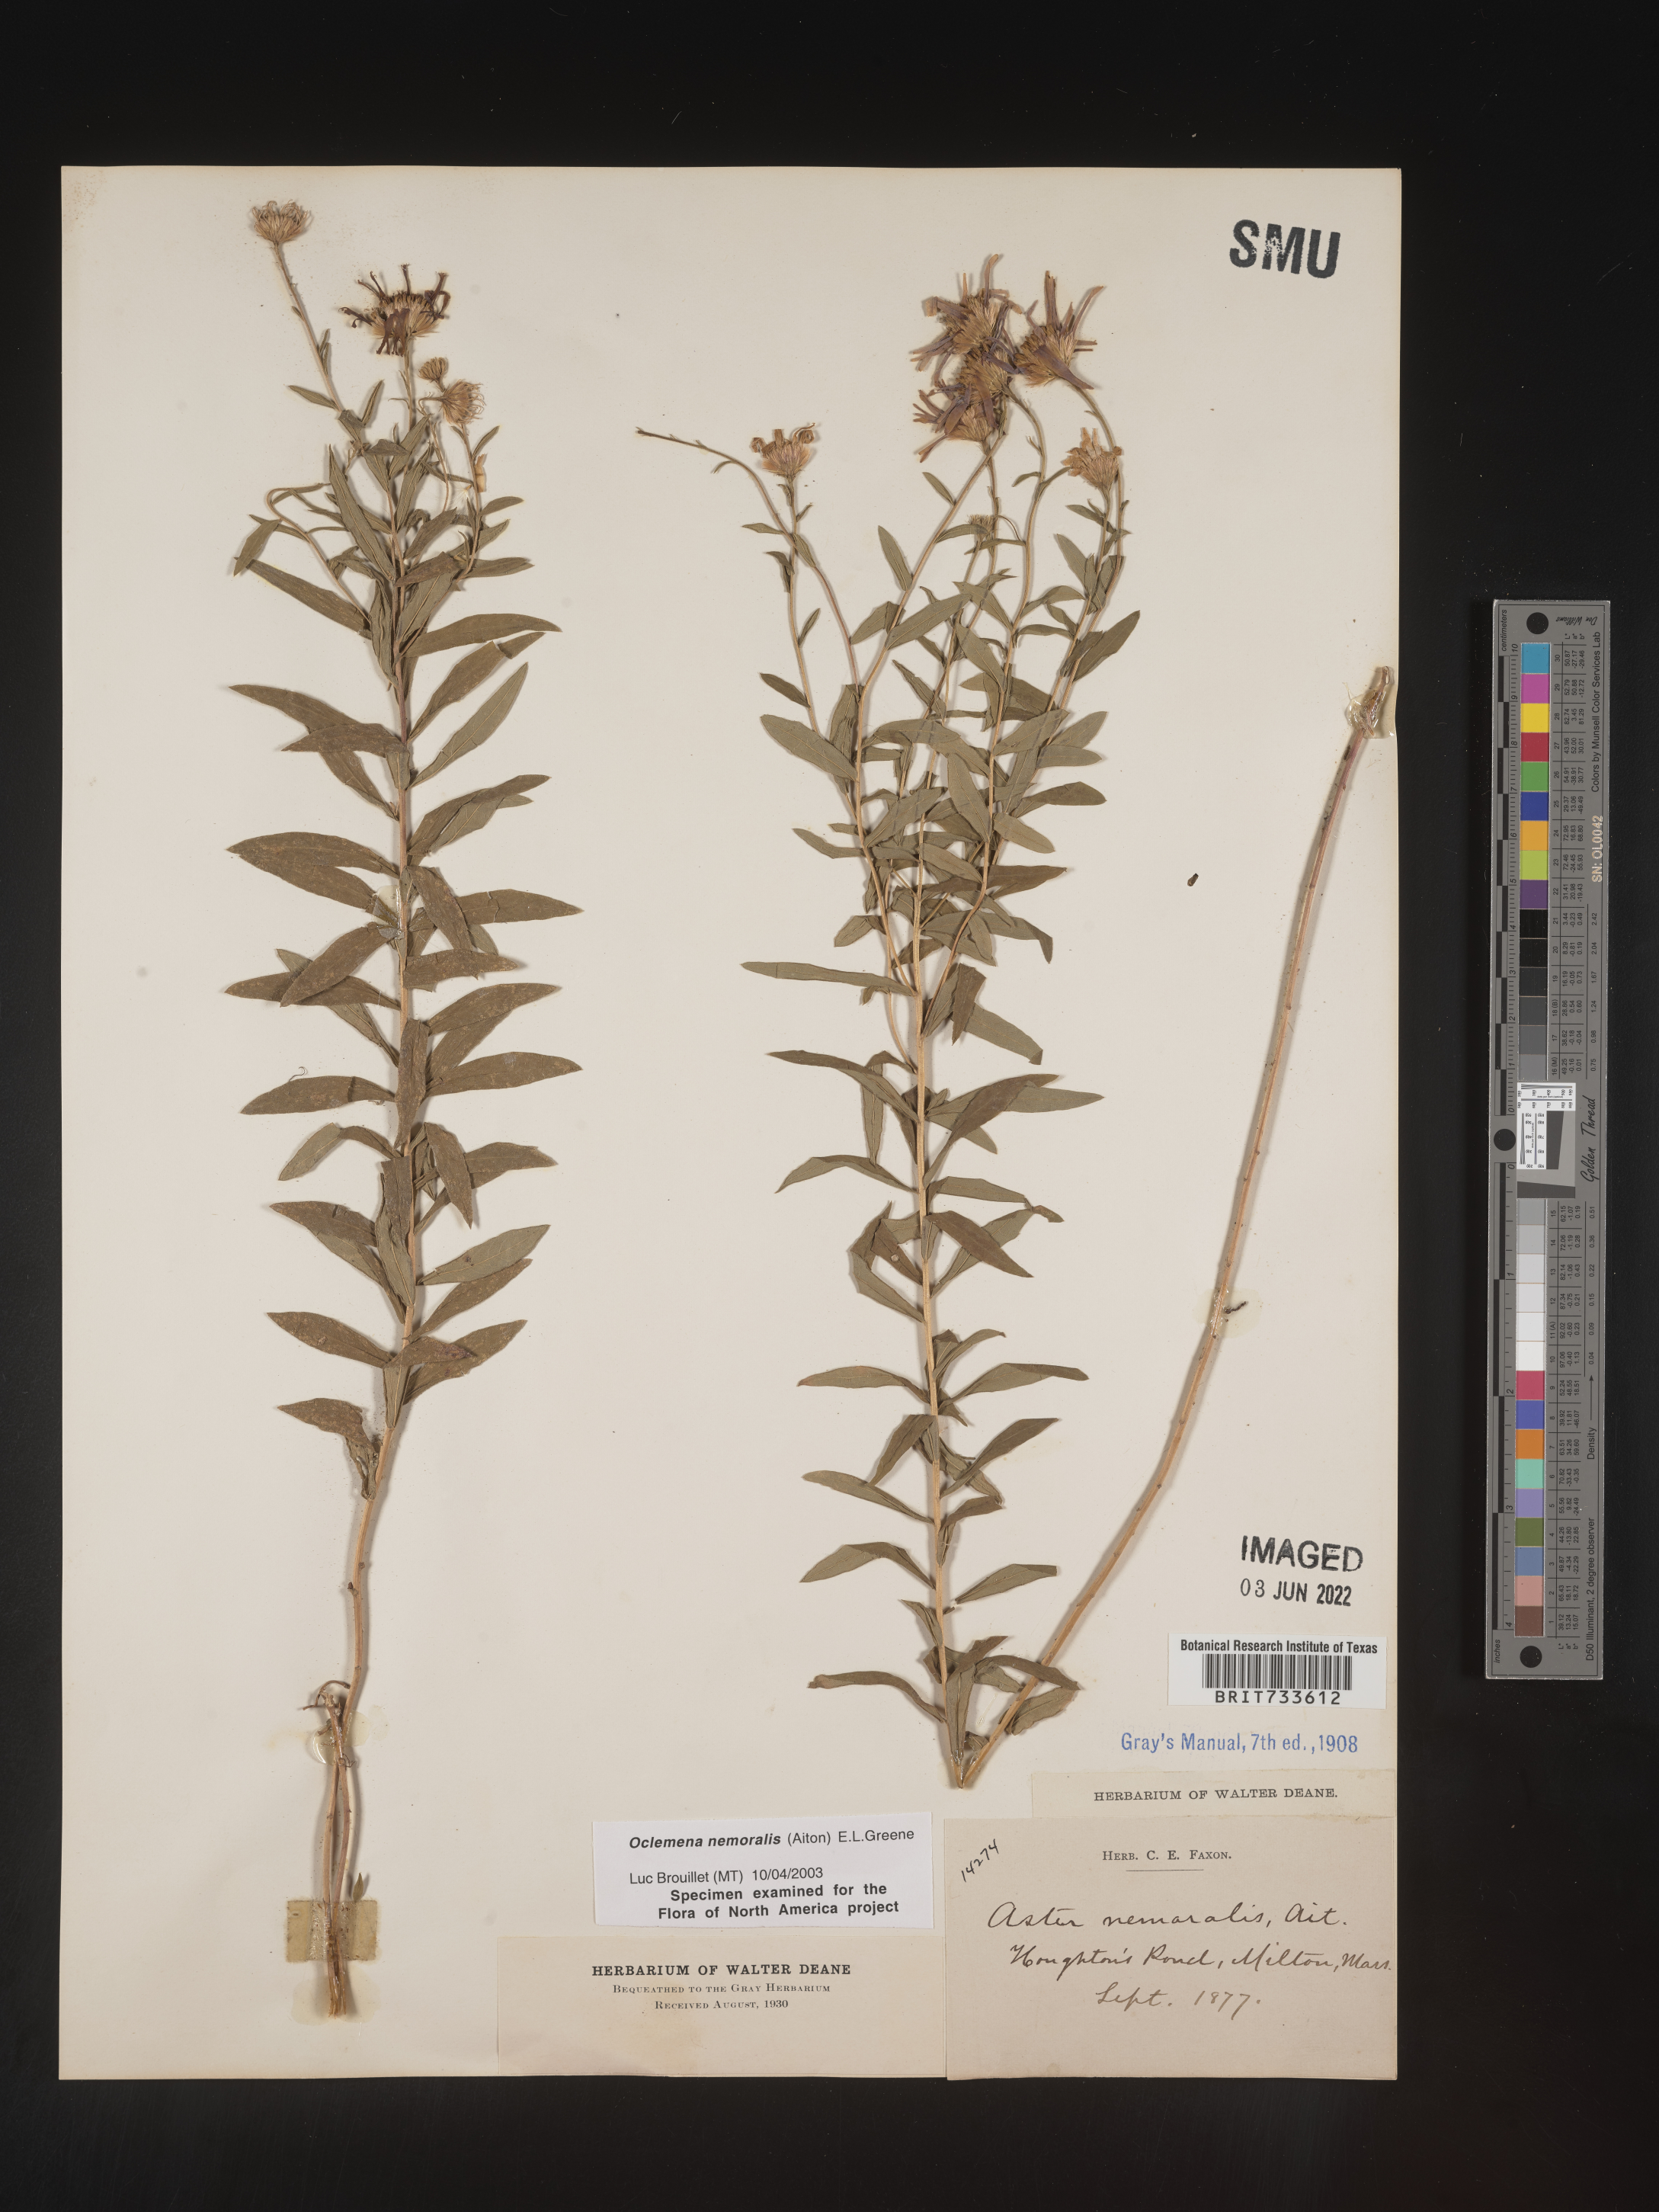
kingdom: Plantae
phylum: Tracheophyta
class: Magnoliopsida
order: Asterales
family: Asteraceae
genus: Oclemena
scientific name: Oclemena nemoralis
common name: Bog aster
